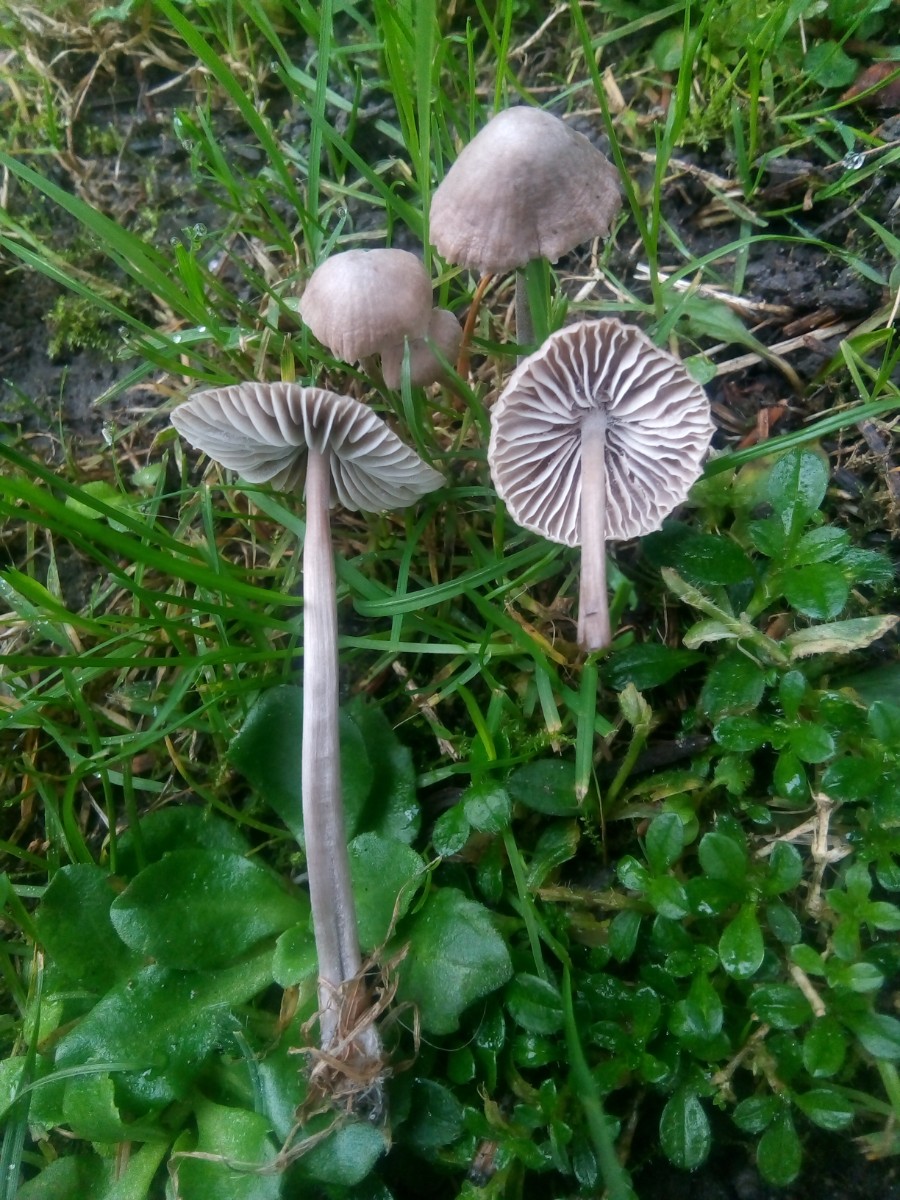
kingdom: Fungi
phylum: Basidiomycota
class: Agaricomycetes
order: Agaricales
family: Mycenaceae
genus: Mycena
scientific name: Mycena aetites
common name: plæne-huesvamp
